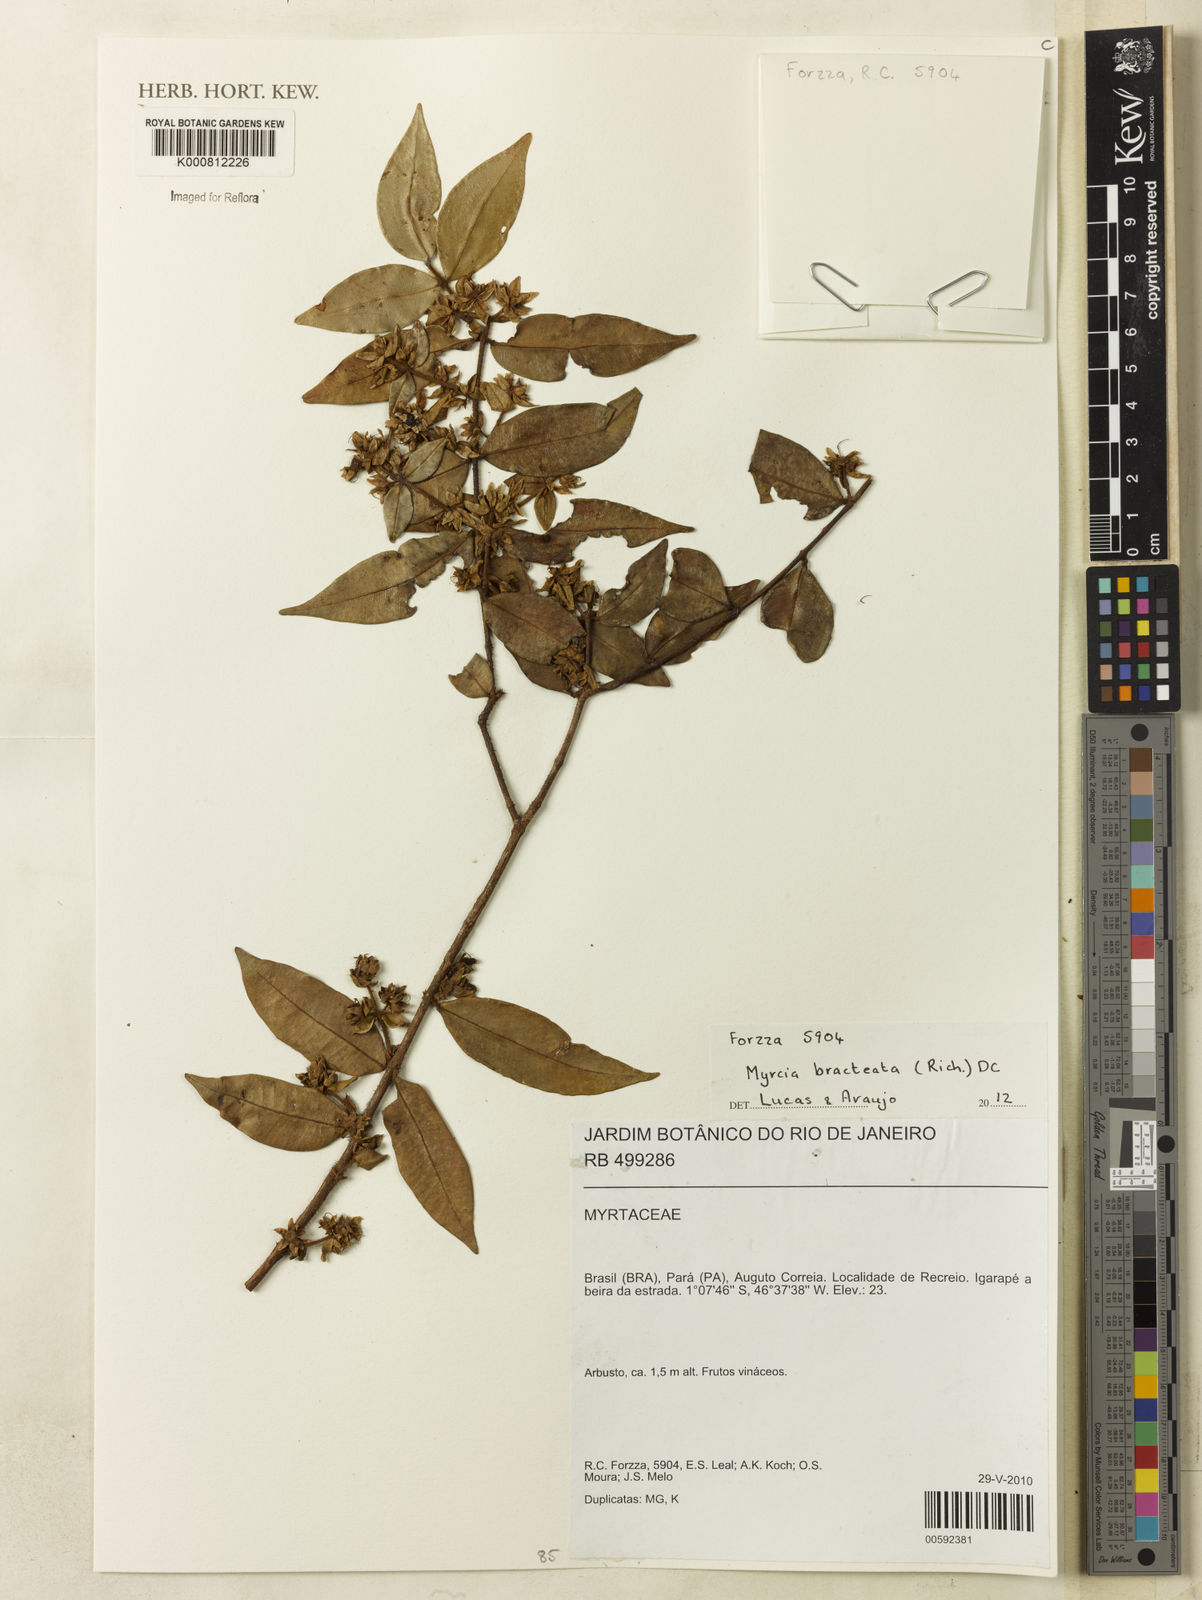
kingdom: Plantae
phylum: Tracheophyta
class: Magnoliopsida
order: Myrtales
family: Myrtaceae
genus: Myrcia
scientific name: Myrcia bracteata
